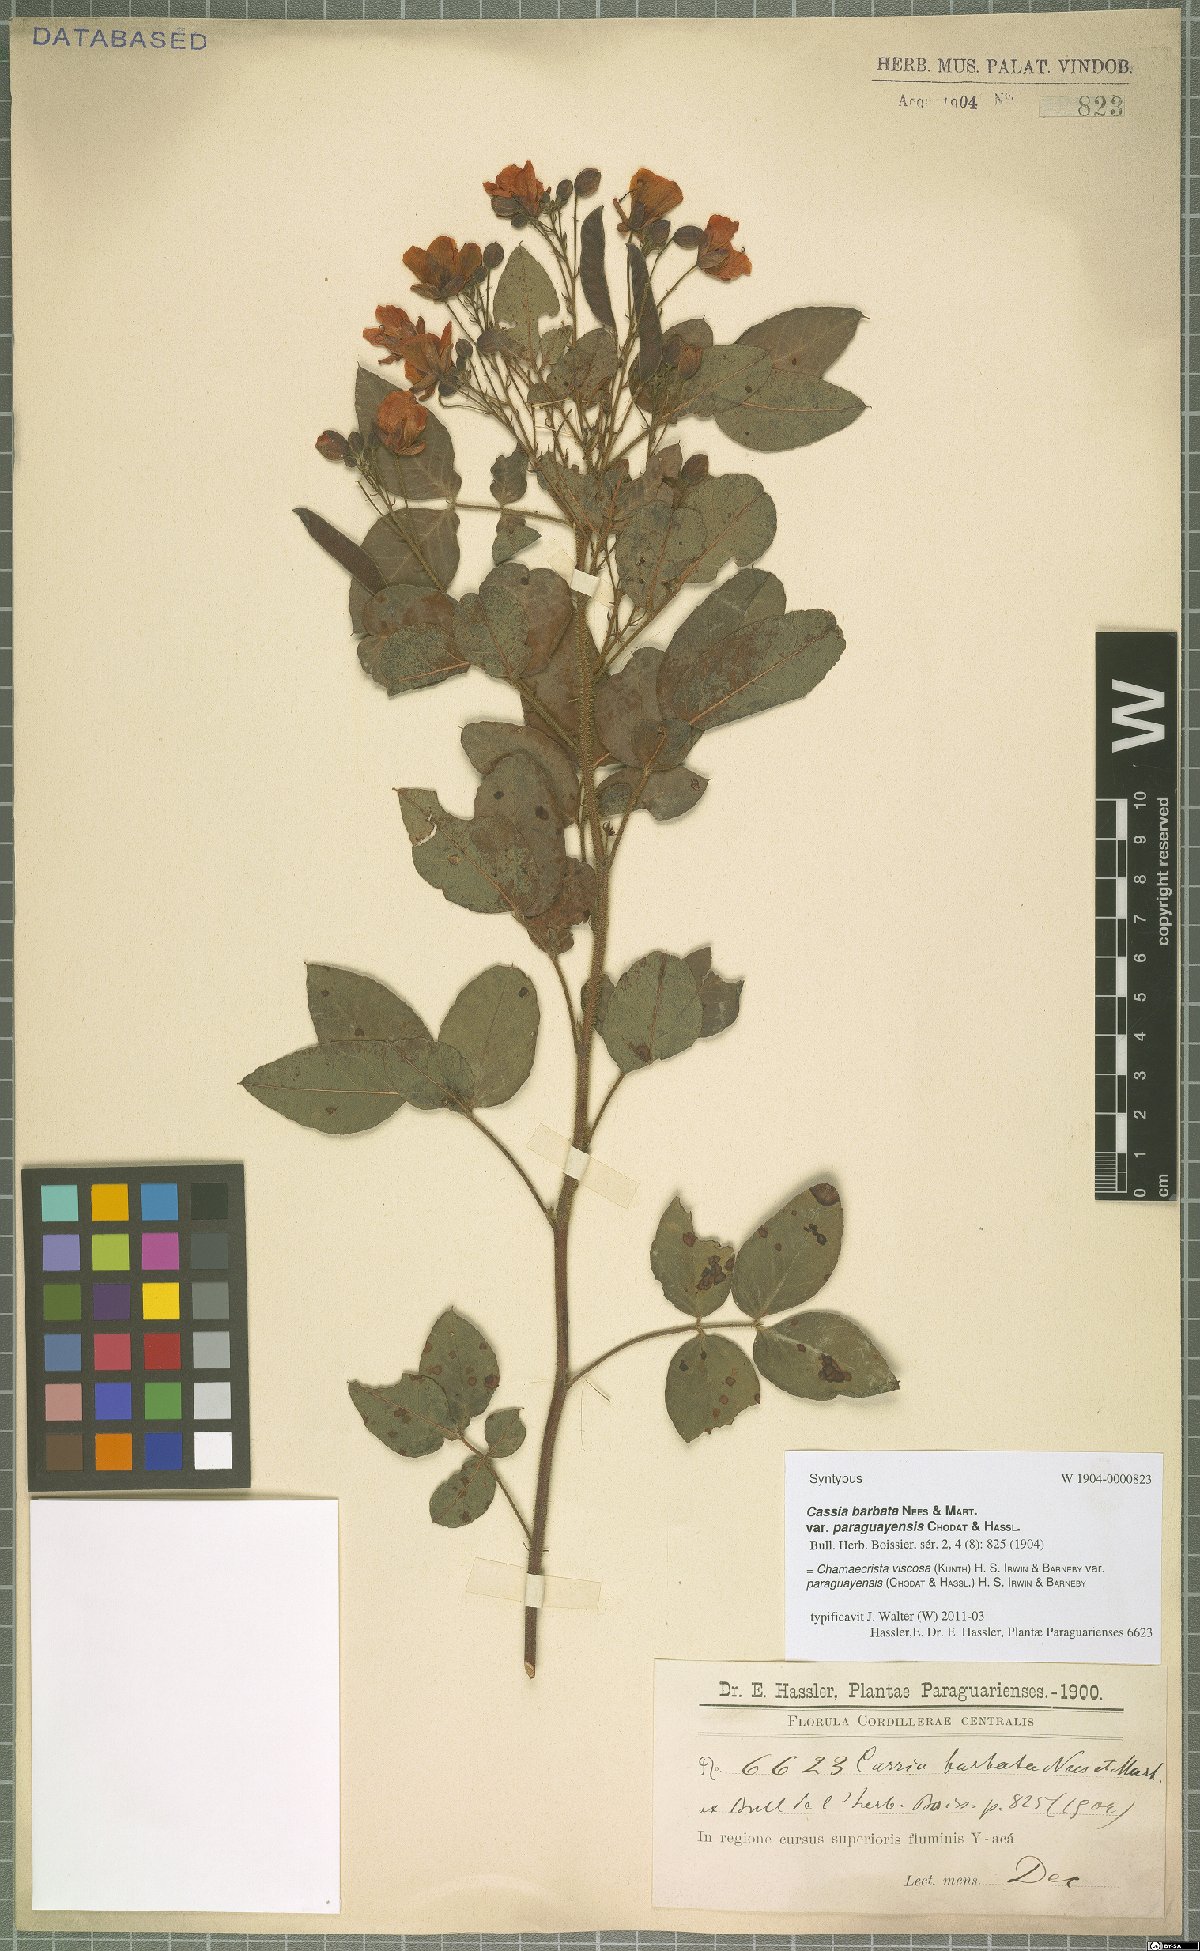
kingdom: Plantae
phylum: Tracheophyta
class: Magnoliopsida
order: Fabales
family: Fabaceae
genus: Chamaecrista
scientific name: Chamaecrista viscosa
